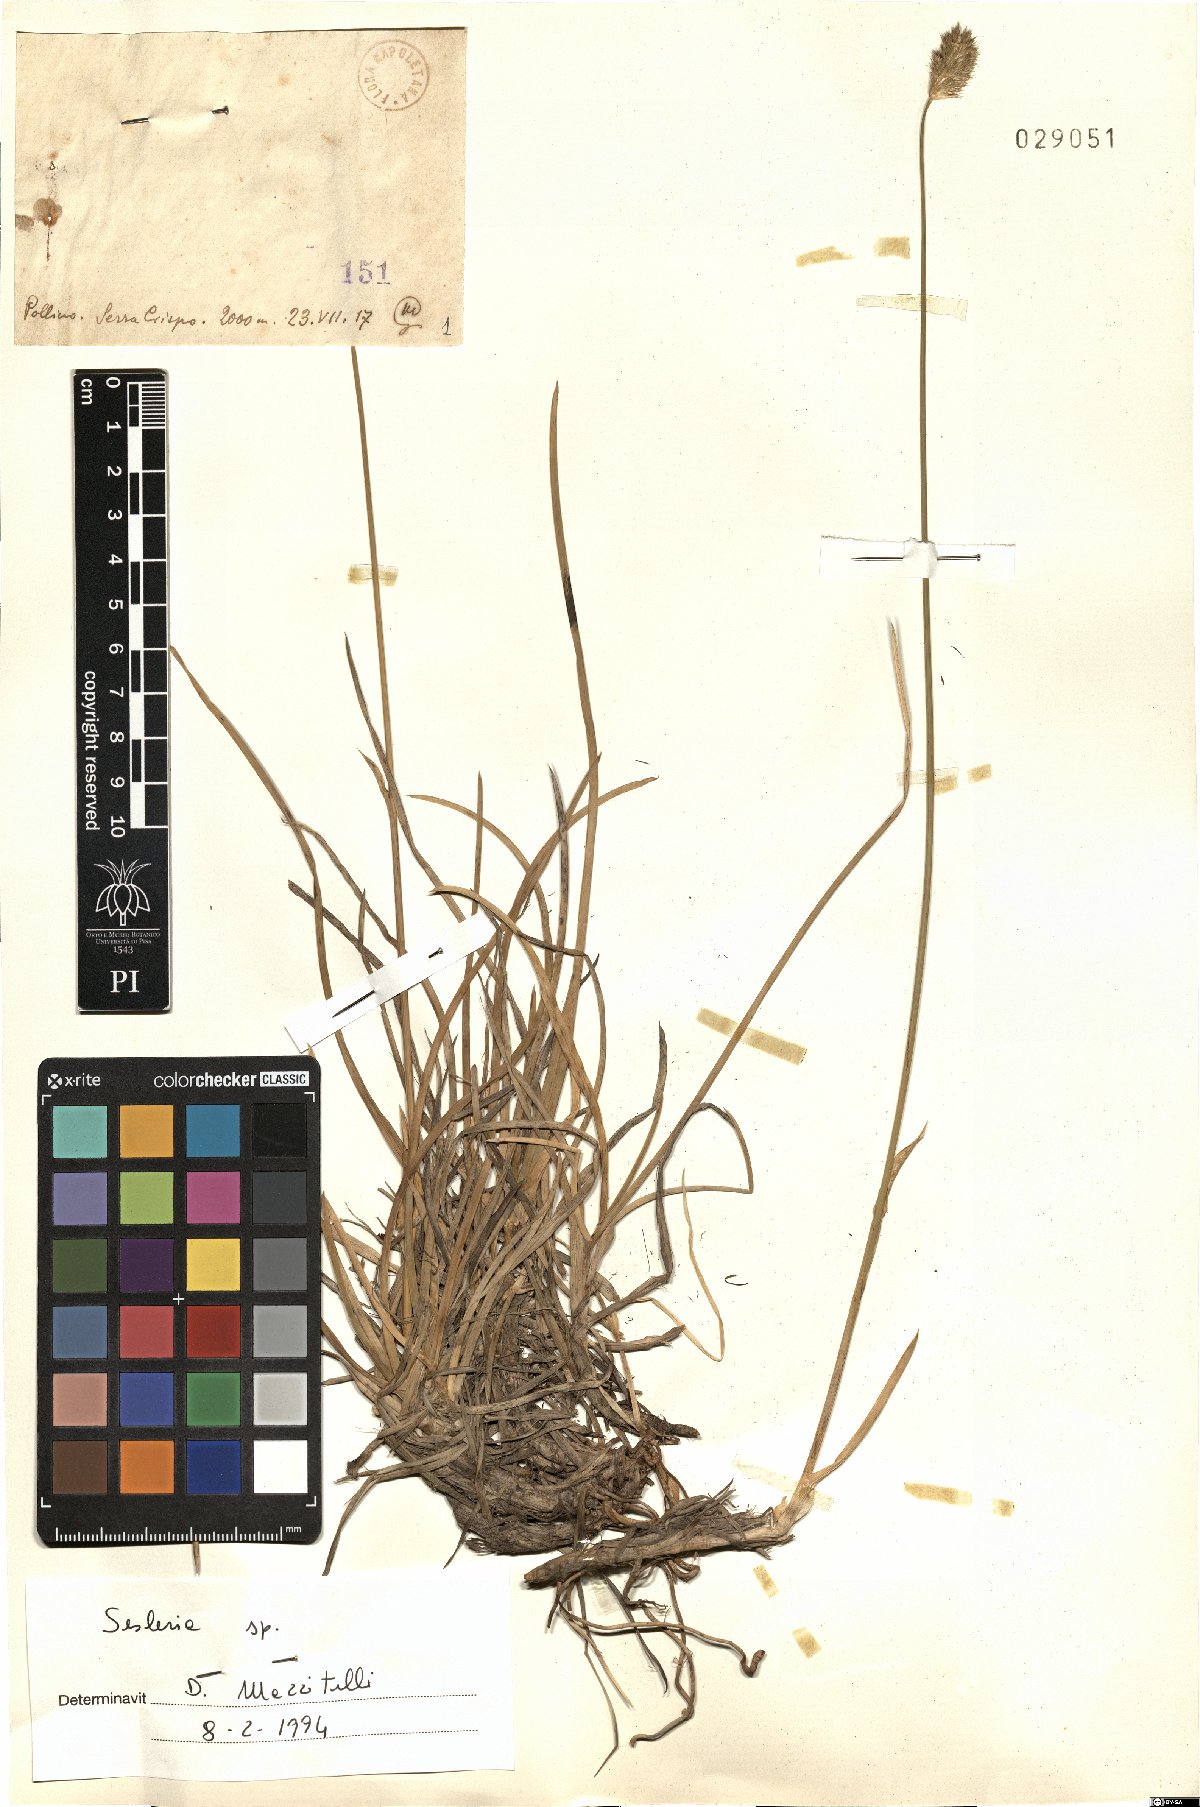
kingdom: Plantae
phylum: Tracheophyta
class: Liliopsida
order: Poales
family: Poaceae
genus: Sesleria
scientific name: Sesleria
